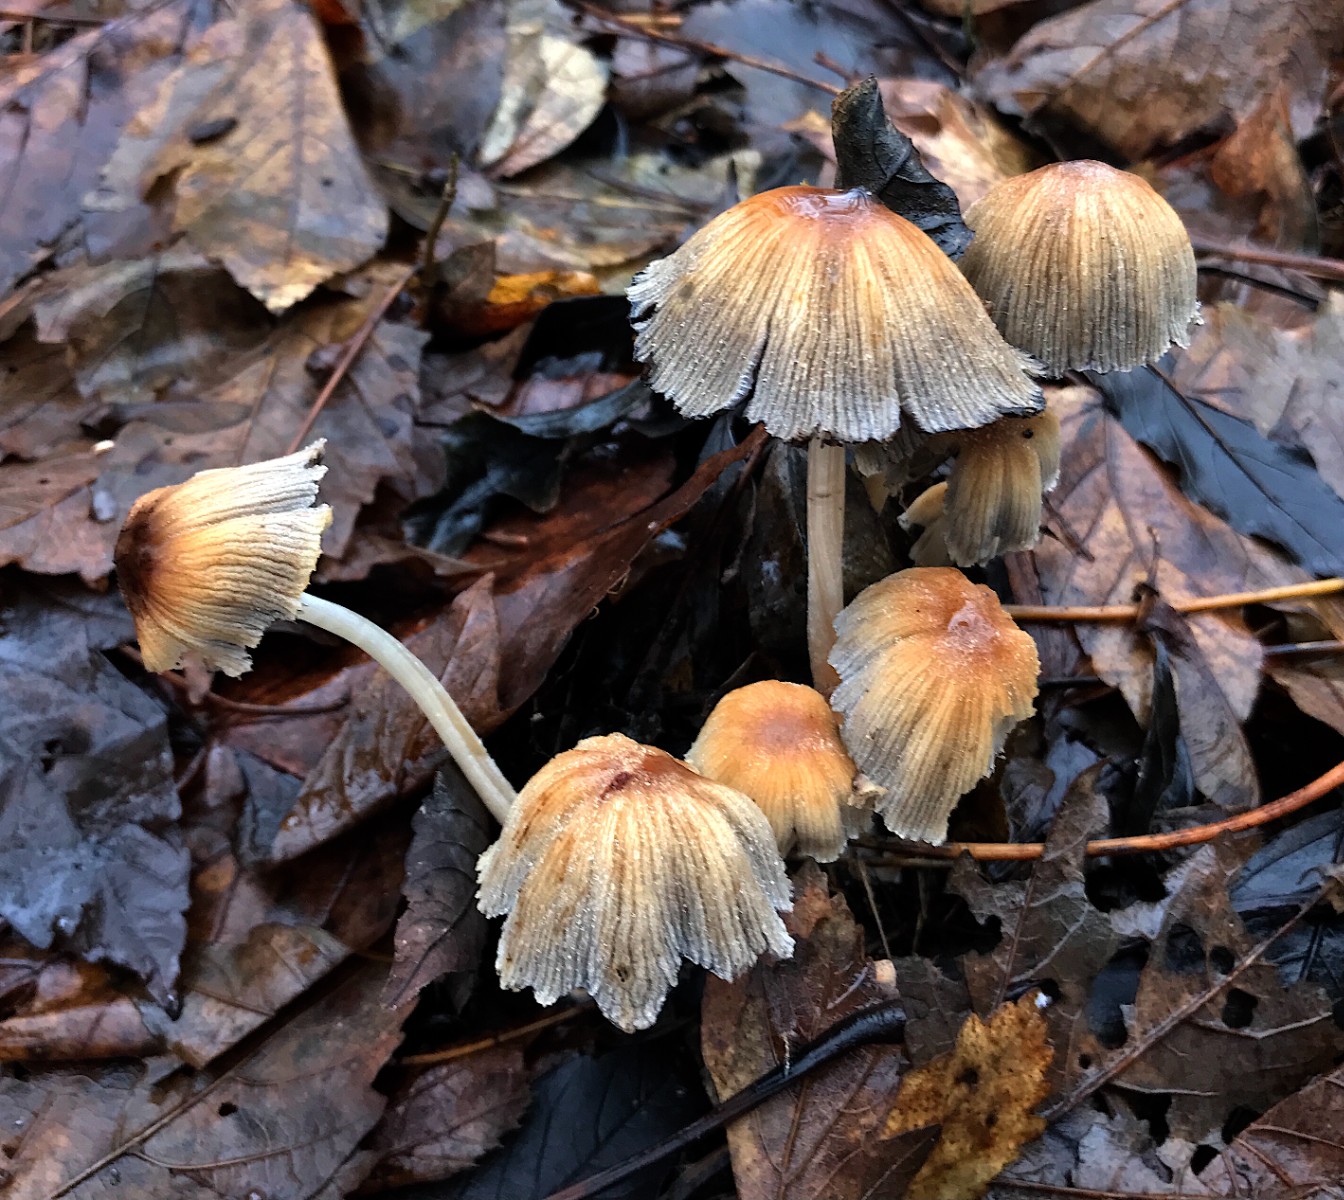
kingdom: Fungi
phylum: Basidiomycota
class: Agaricomycetes
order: Agaricales
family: Psathyrellaceae
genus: Coprinellus
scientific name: Coprinellus micaceus
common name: glimmer-blækhat
